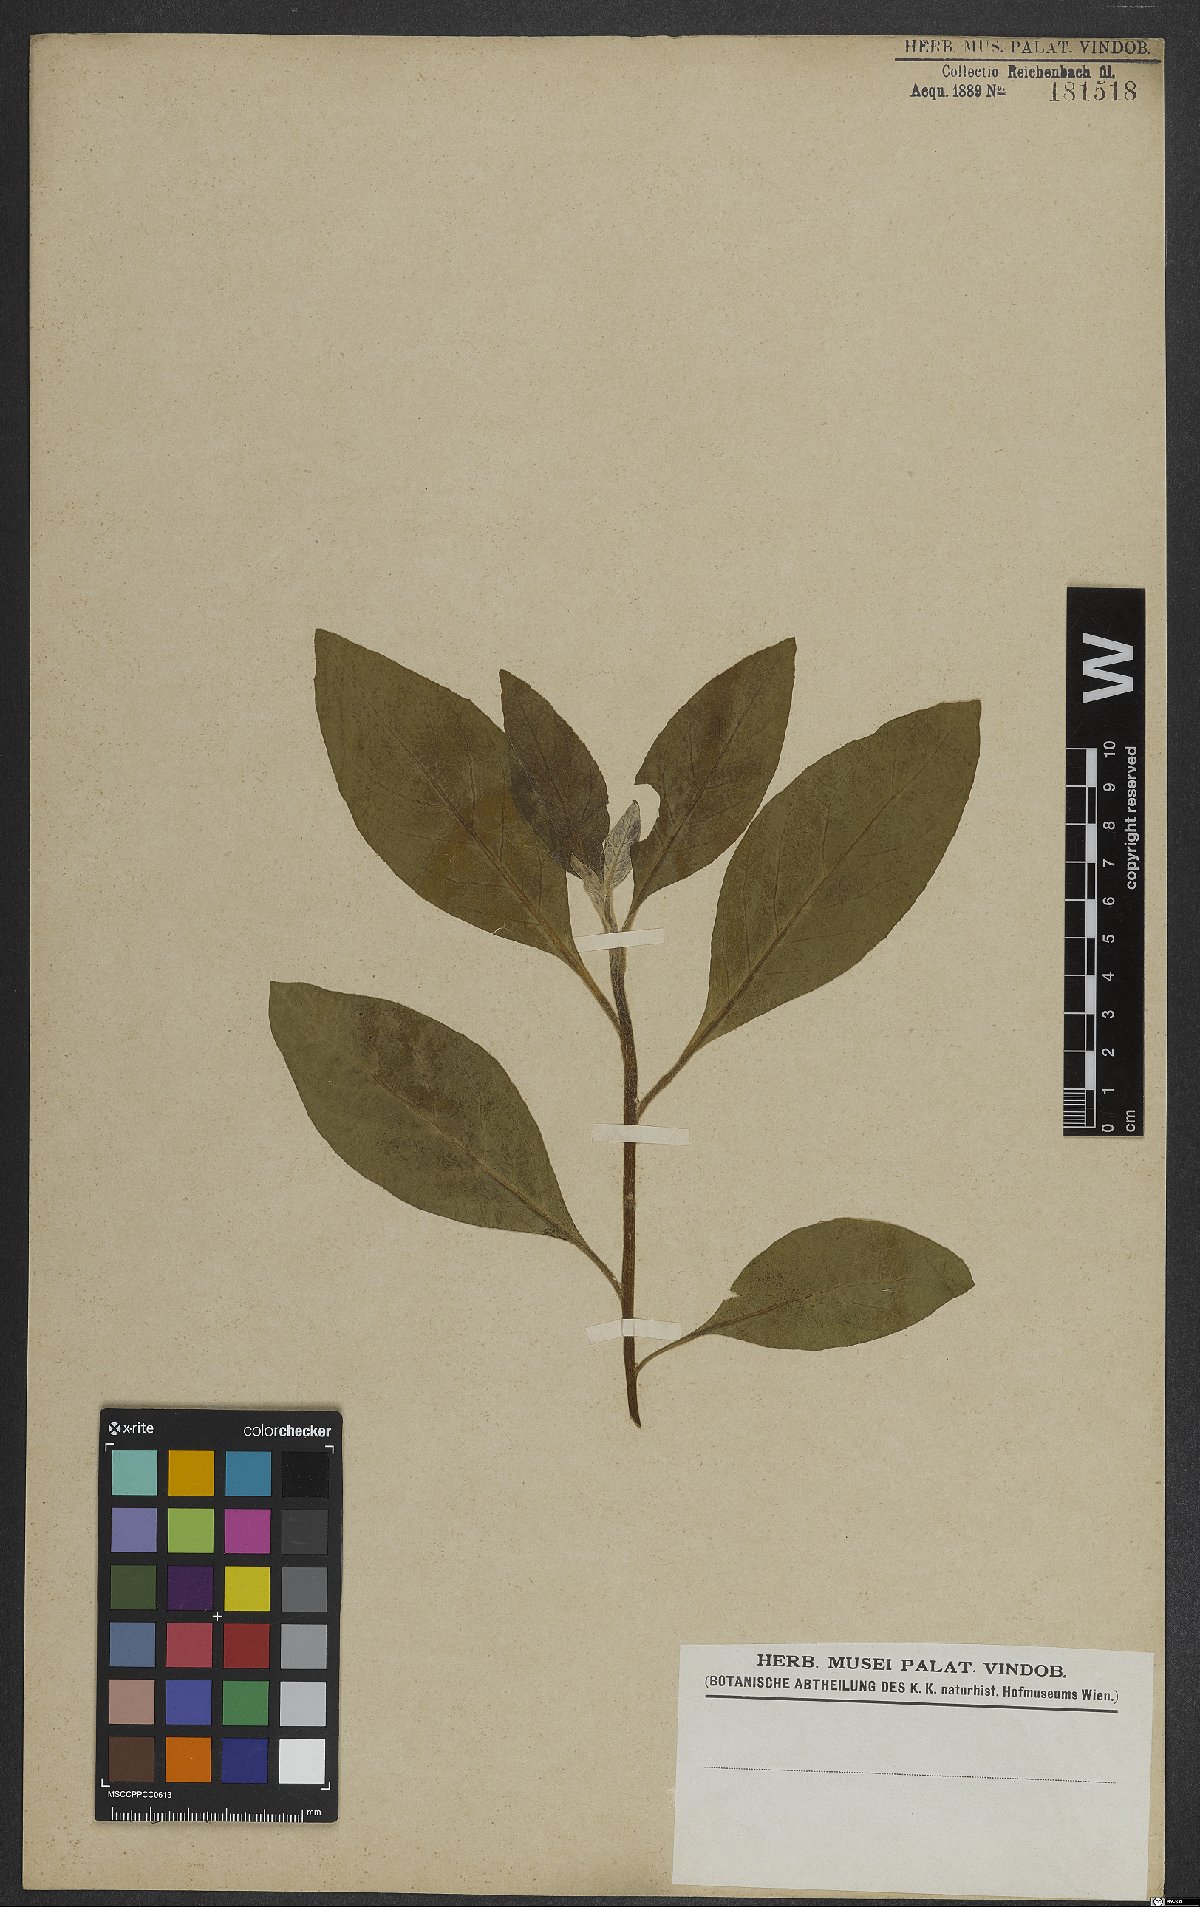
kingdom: Plantae
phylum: Tracheophyta
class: Magnoliopsida
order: Asterales
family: Asteraceae
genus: Baccharis
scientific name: Baccharis
